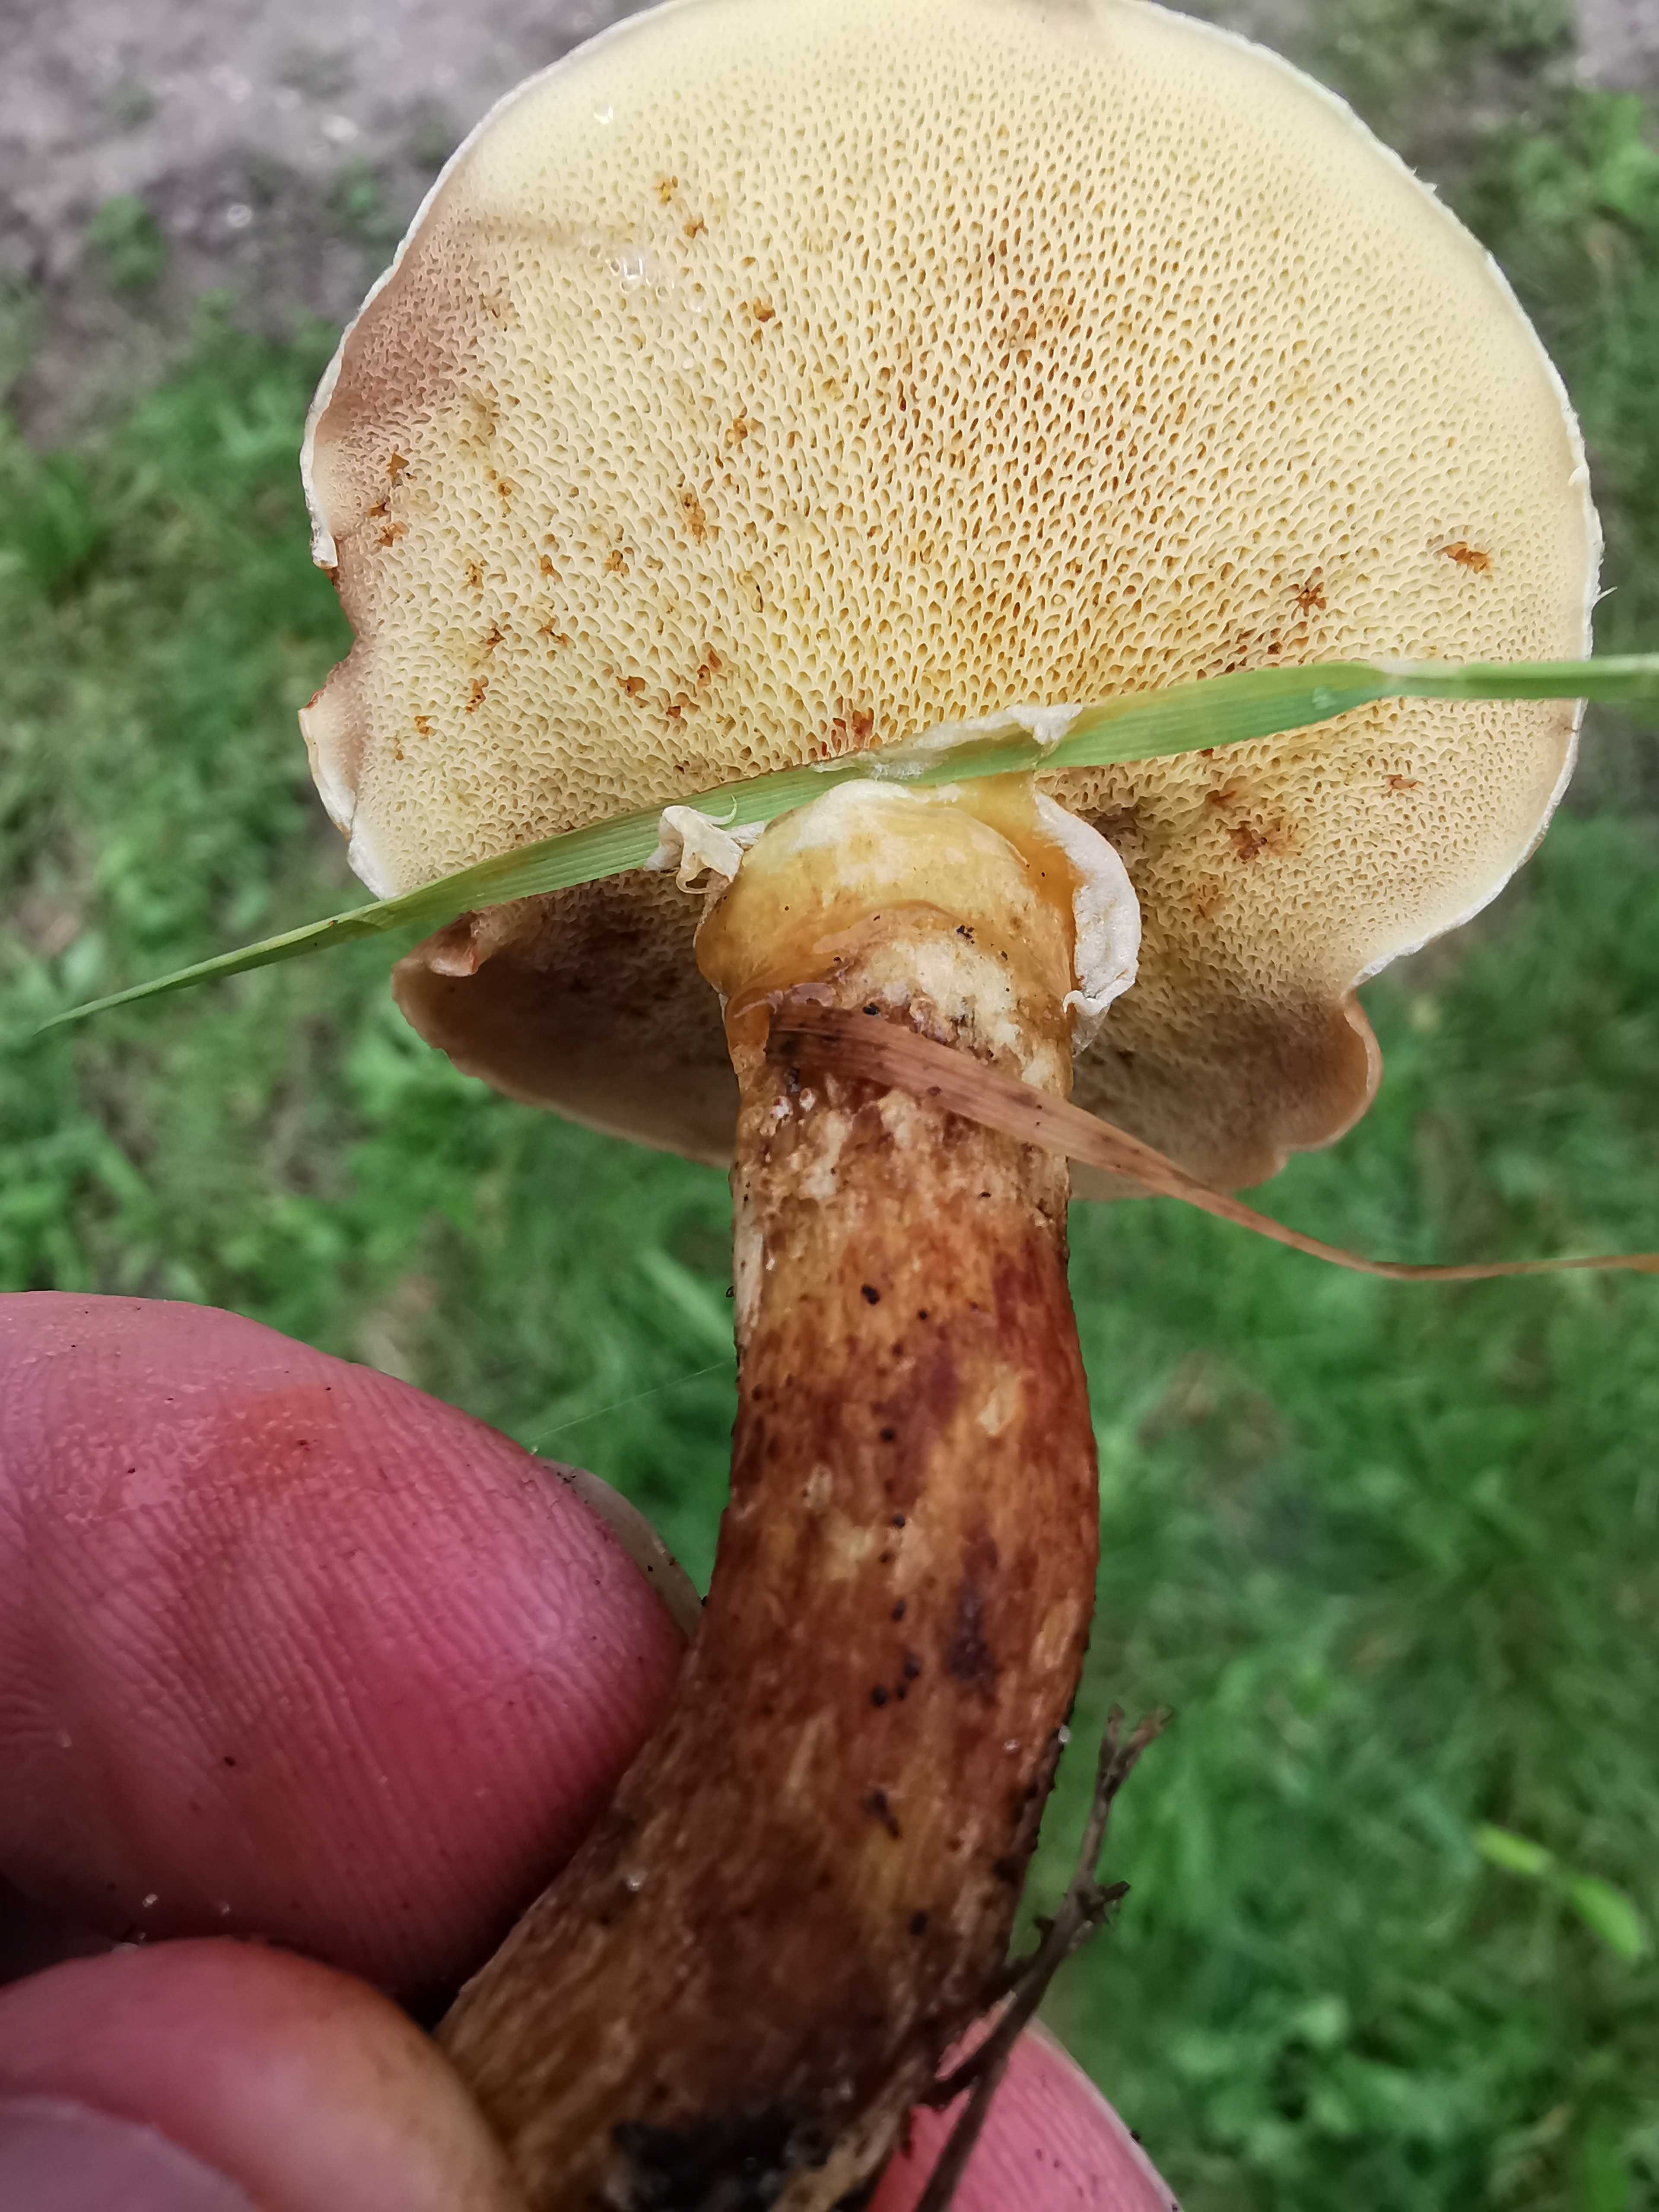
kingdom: Fungi
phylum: Basidiomycota
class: Agaricomycetes
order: Boletales
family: Suillaceae
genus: Suillus
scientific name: Suillus grevillei
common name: lærke-slimrørhat
